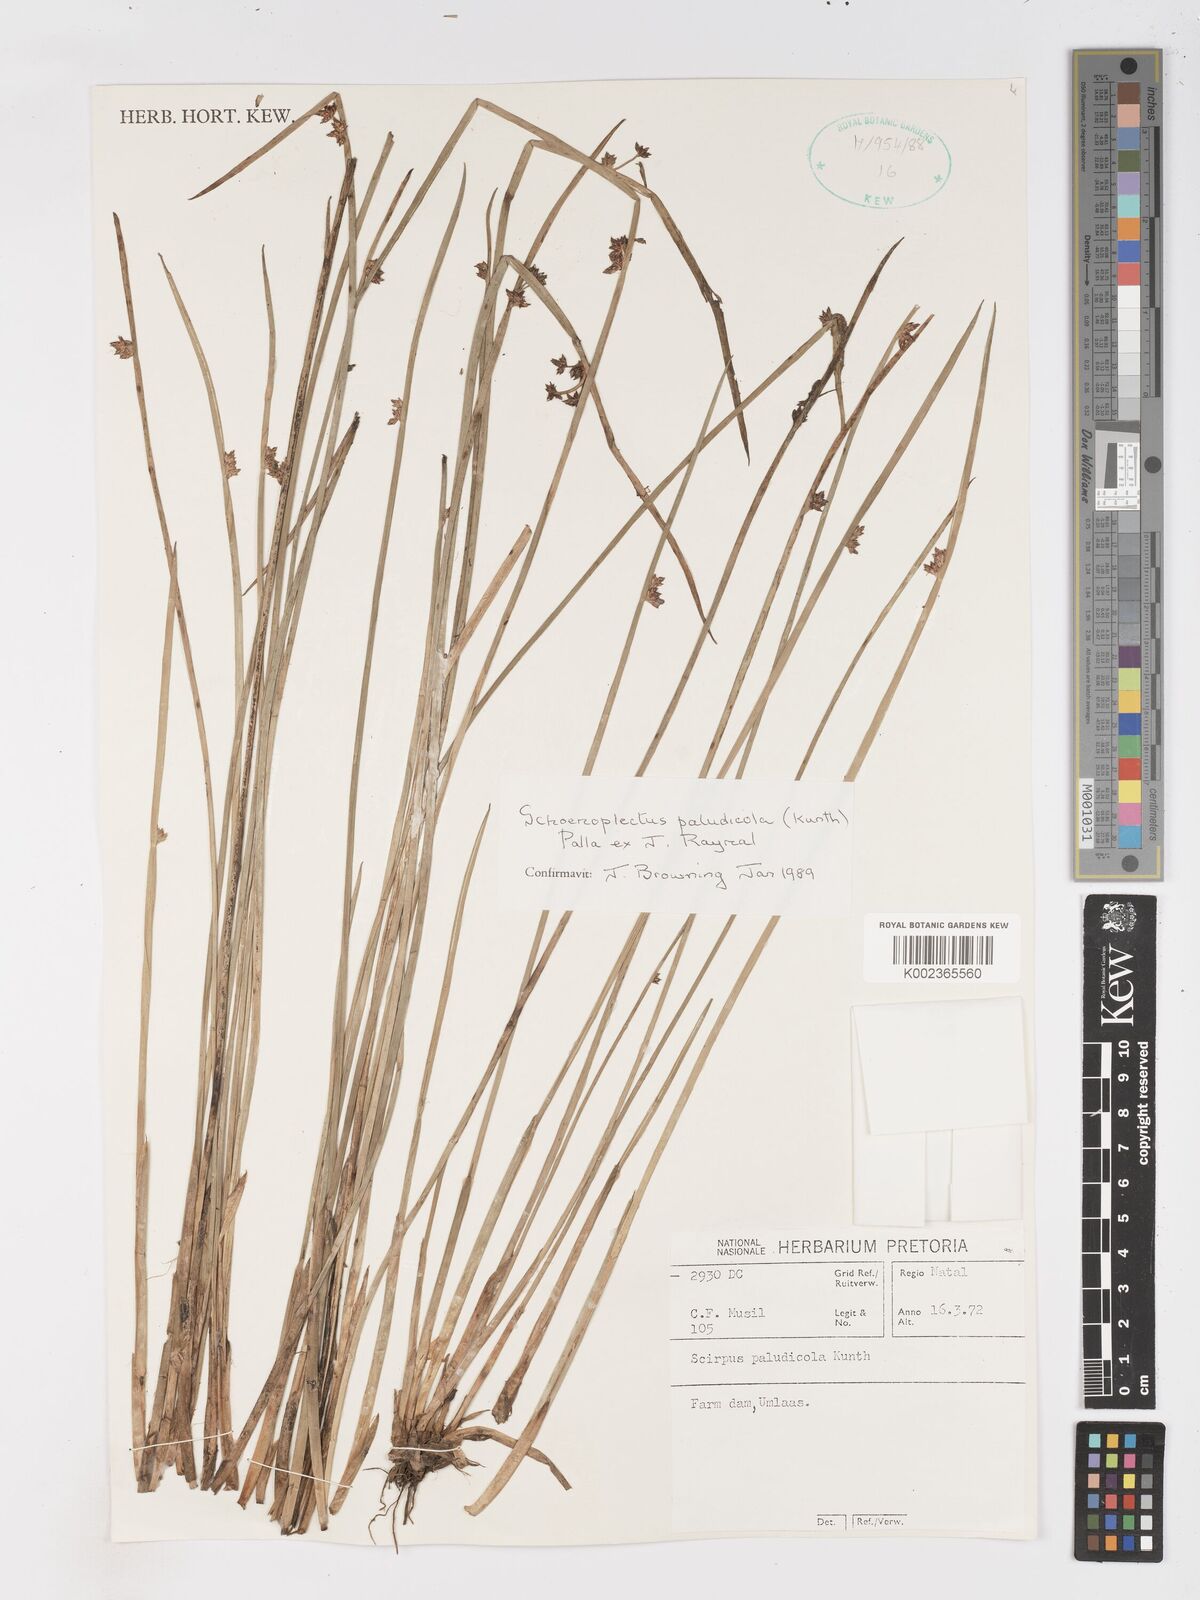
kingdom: Plantae
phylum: Tracheophyta
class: Liliopsida
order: Poales
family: Cyperaceae
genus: Schoenoplectiella
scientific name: Schoenoplectiella paludicola
